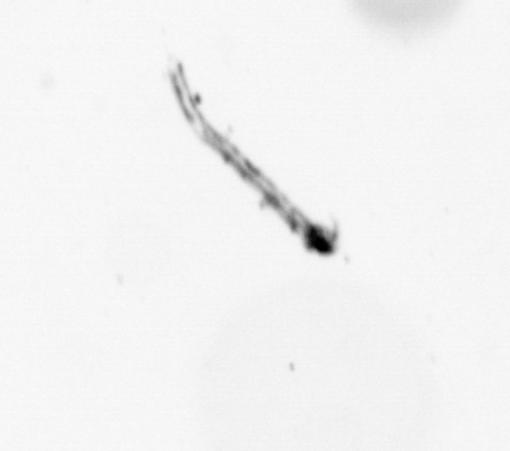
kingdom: Chromista
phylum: Ochrophyta
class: Bacillariophyceae
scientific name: Bacillariophyceae
